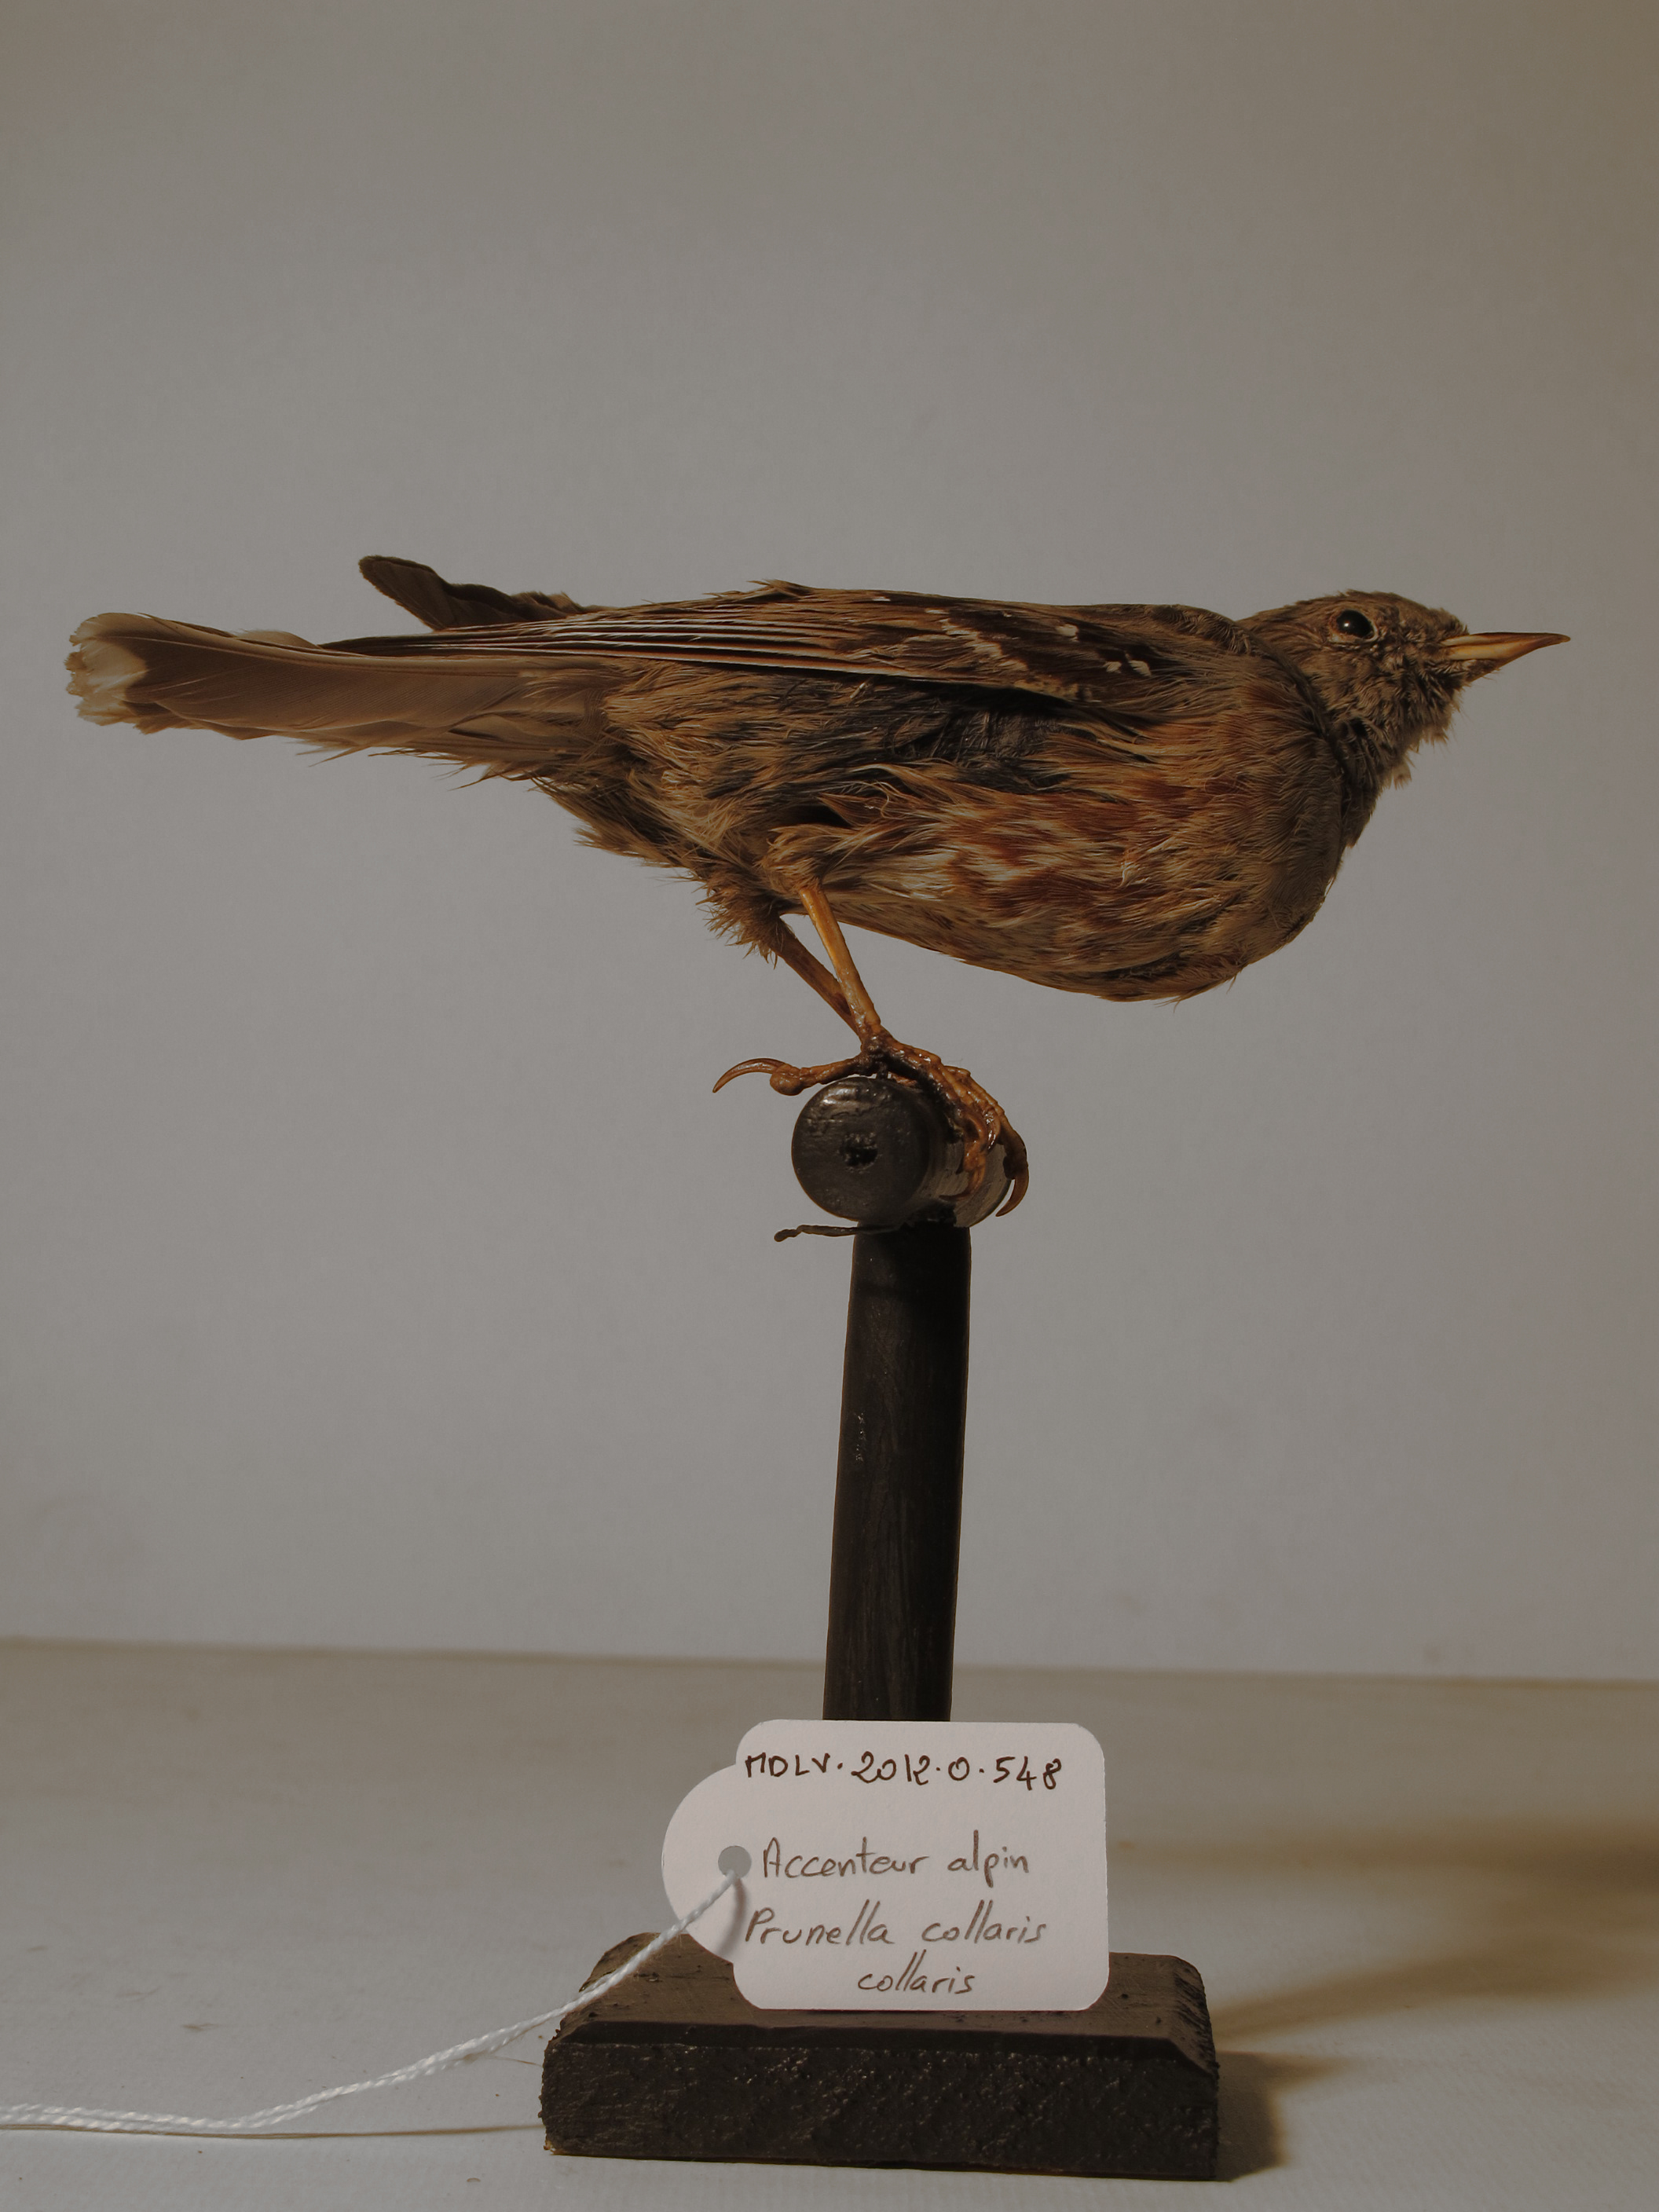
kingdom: Animalia
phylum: Chordata
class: Aves
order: Passeriformes
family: Prunellidae
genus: Prunella
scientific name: Prunella collaris
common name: Alpine Accentor
